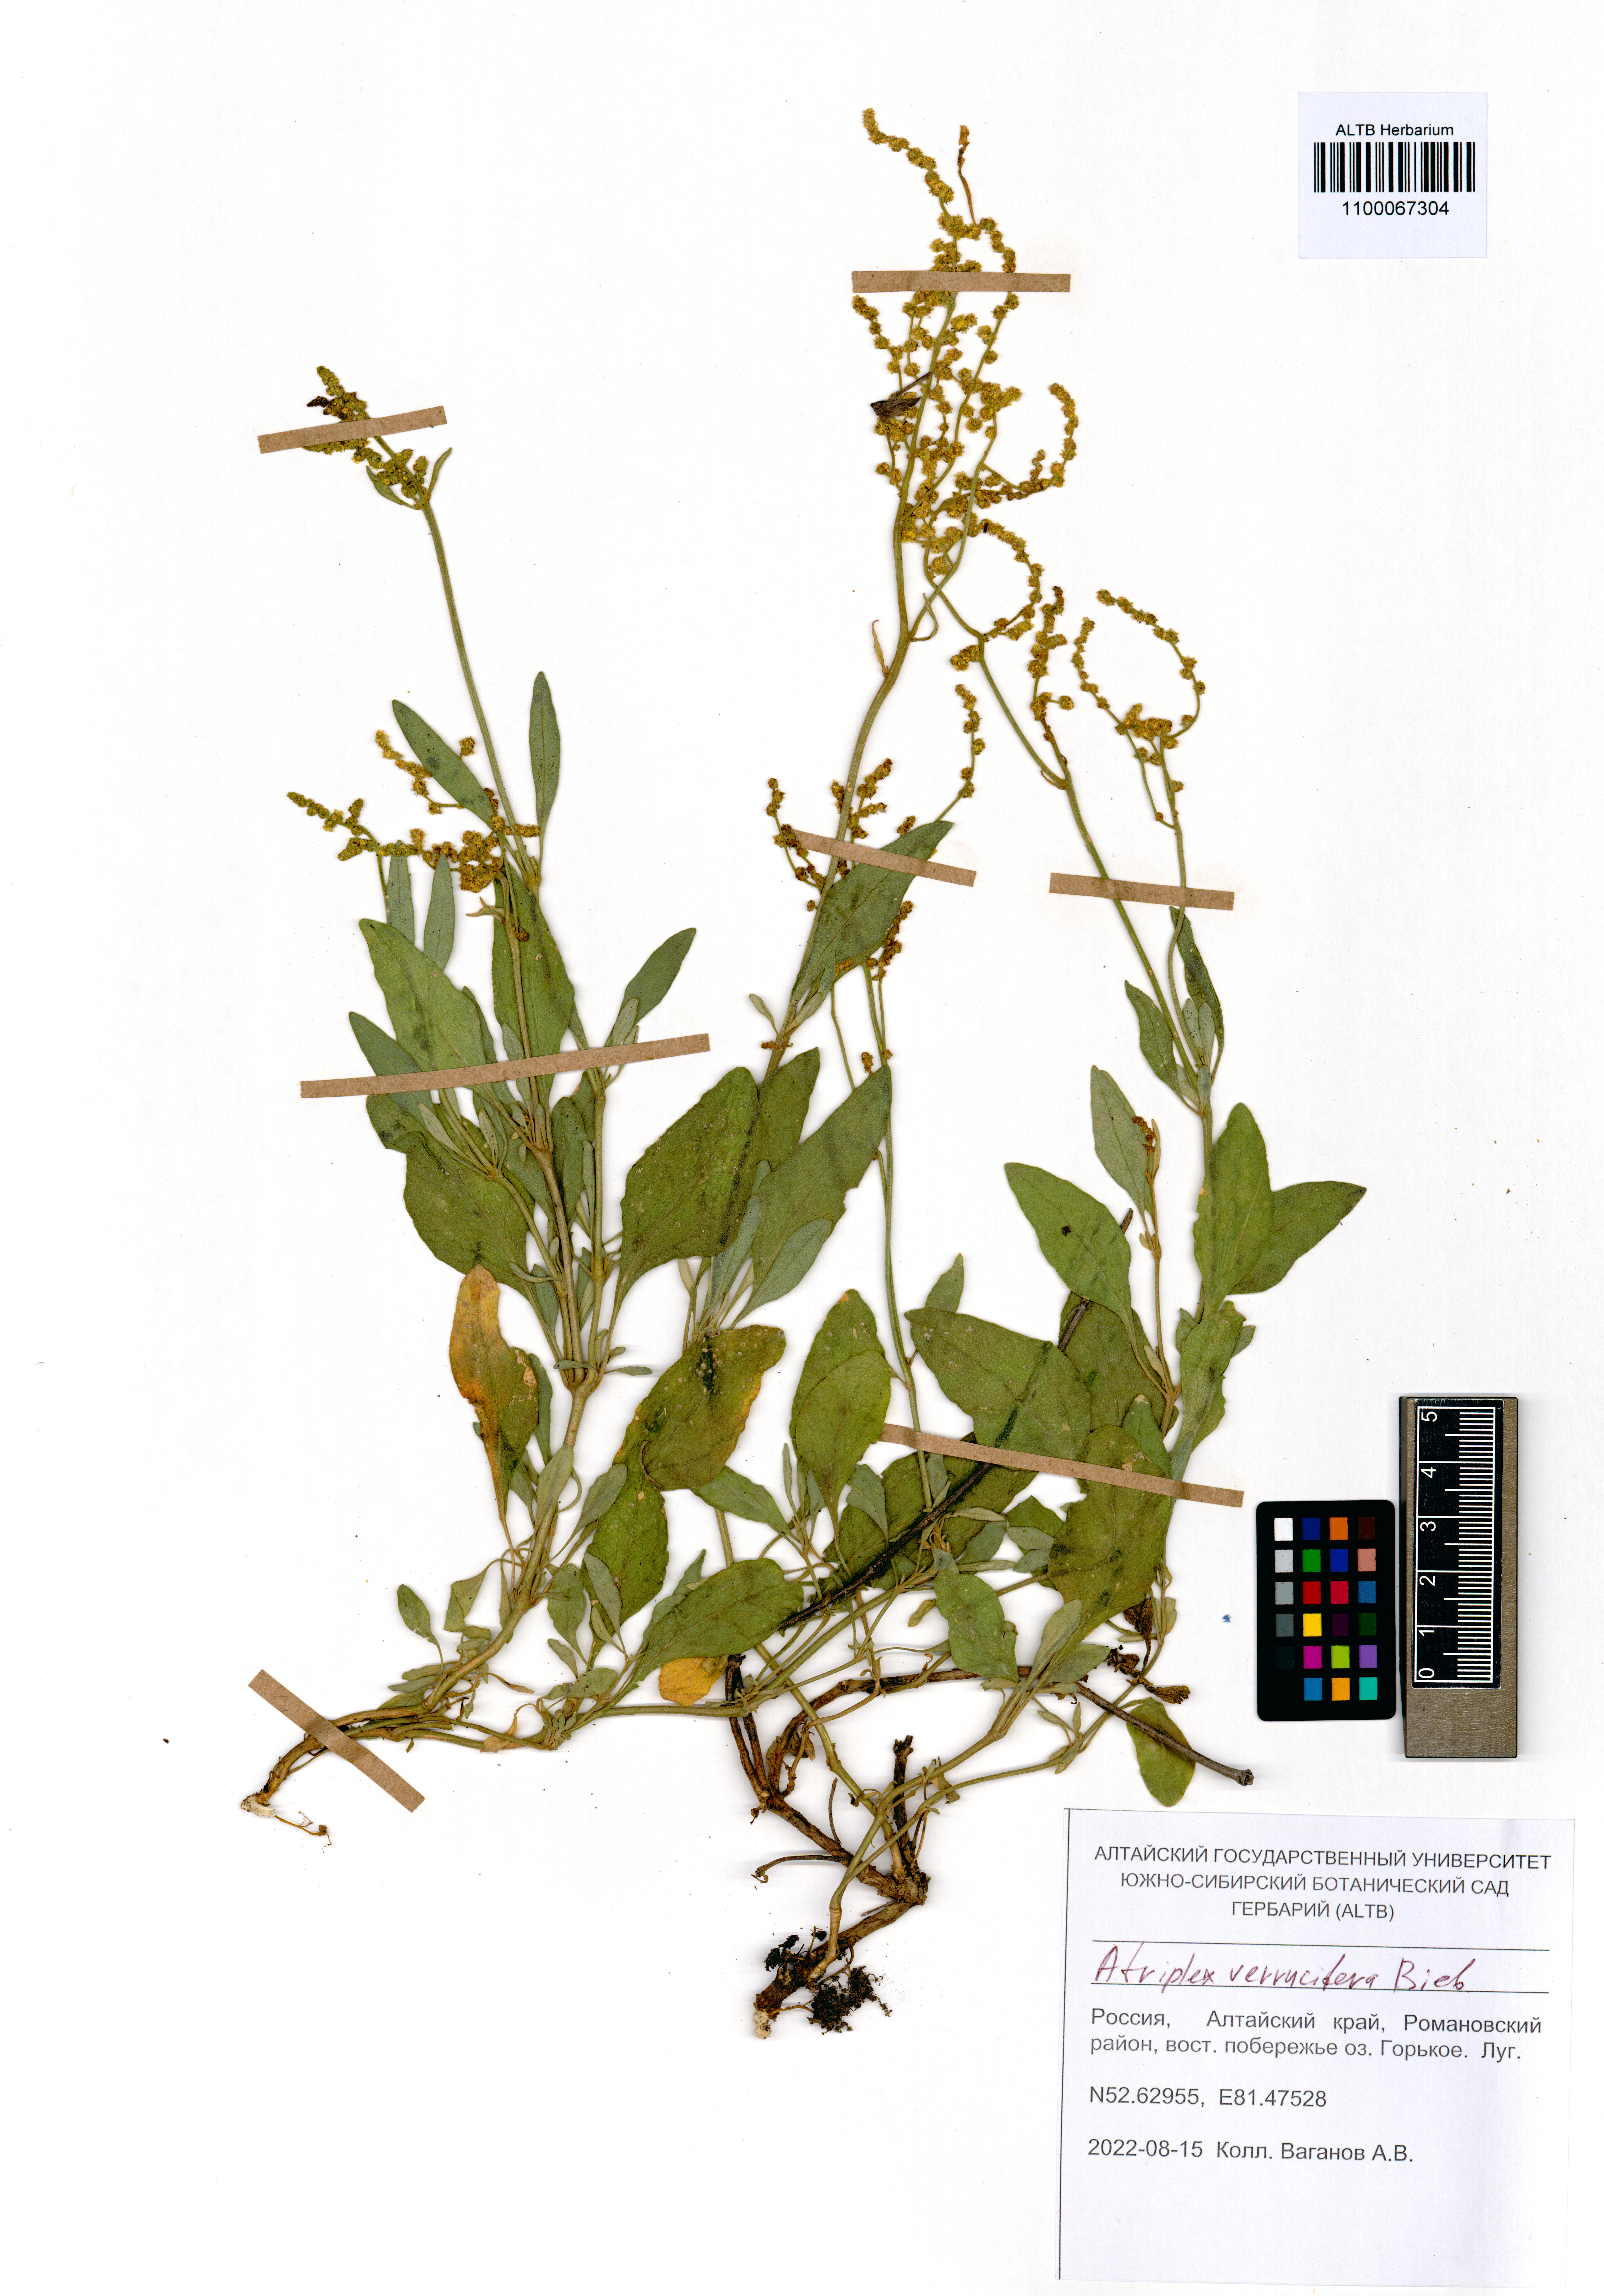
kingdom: Plantae
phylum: Tracheophyta
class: Magnoliopsida
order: Caryophyllales
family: Amaranthaceae
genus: Halimione
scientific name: Halimione verrucifera
